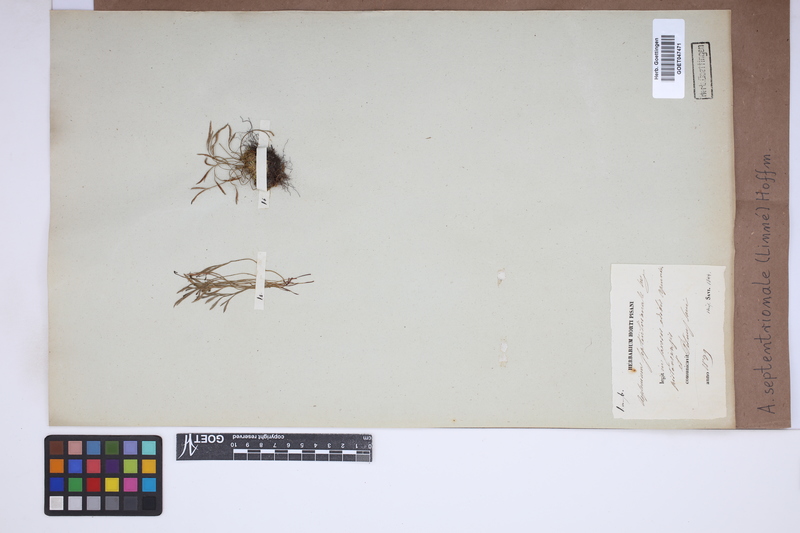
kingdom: Plantae
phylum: Tracheophyta
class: Polypodiopsida
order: Polypodiales
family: Aspleniaceae
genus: Asplenium
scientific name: Asplenium septentrionale
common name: Forked spleenwort
